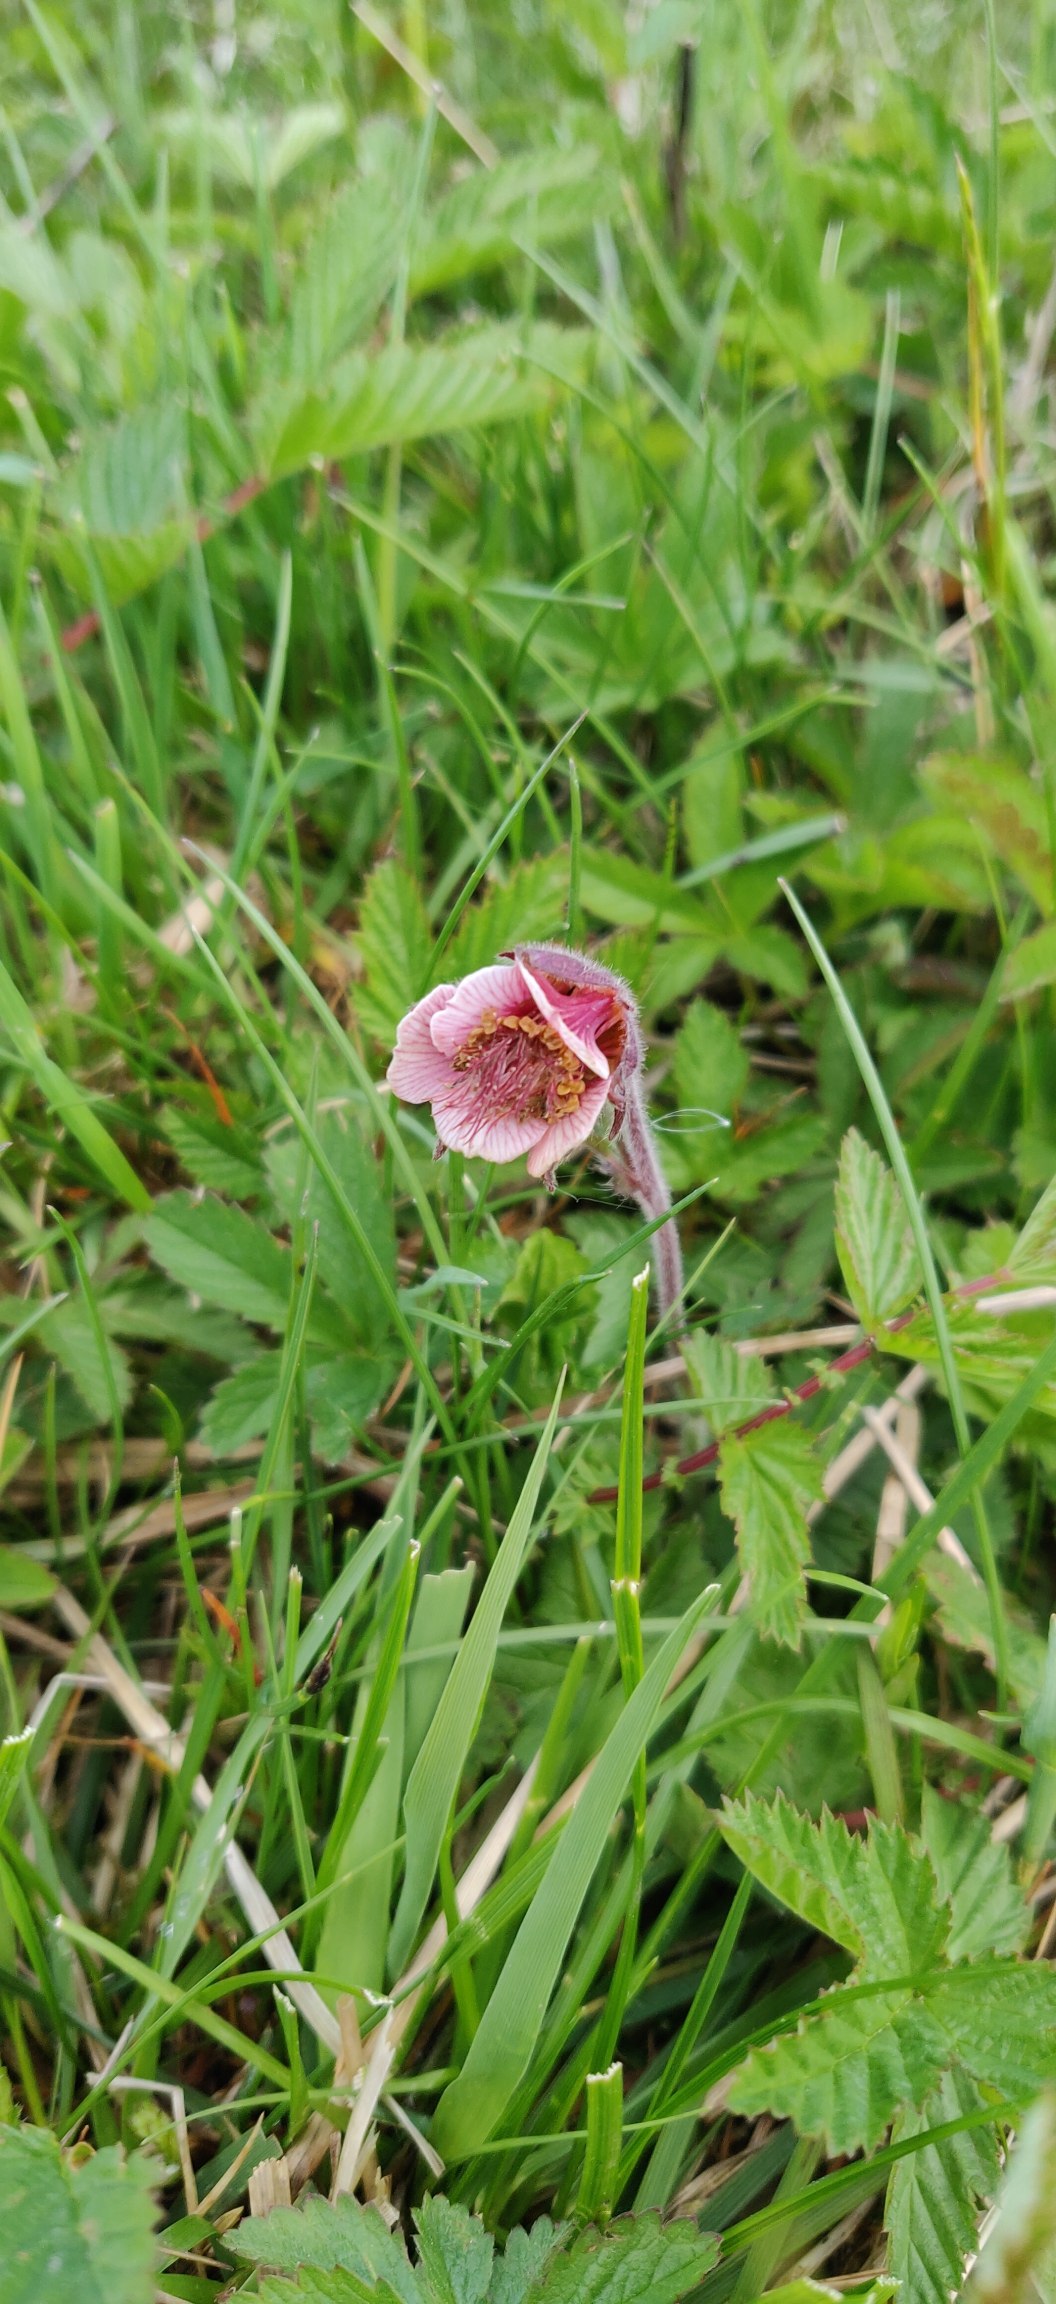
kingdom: Plantae
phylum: Tracheophyta
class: Magnoliopsida
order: Rosales
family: Rosaceae
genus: Geum
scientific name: Geum rivale
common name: Eng-nellikerod
